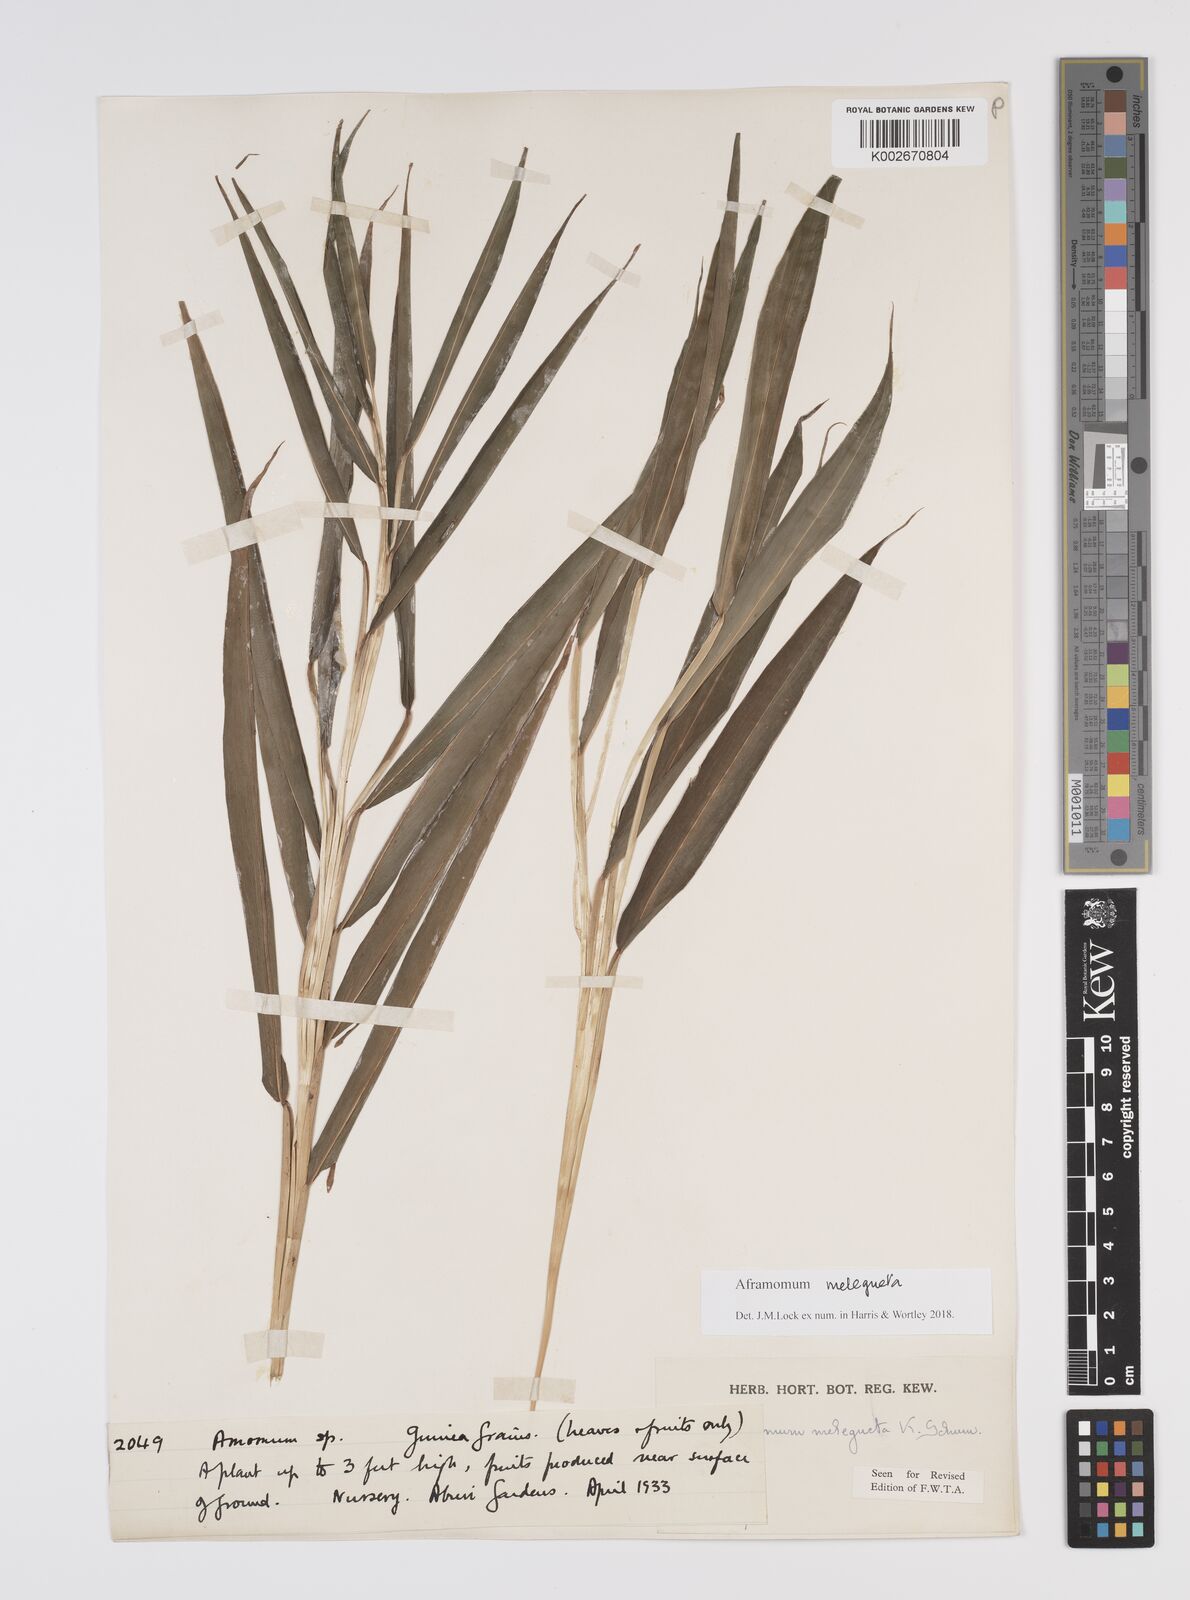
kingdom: Plantae
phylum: Tracheophyta
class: Liliopsida
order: Zingiberales
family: Zingiberaceae
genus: Aframomum
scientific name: Aframomum melegueta
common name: Grains of paradise
